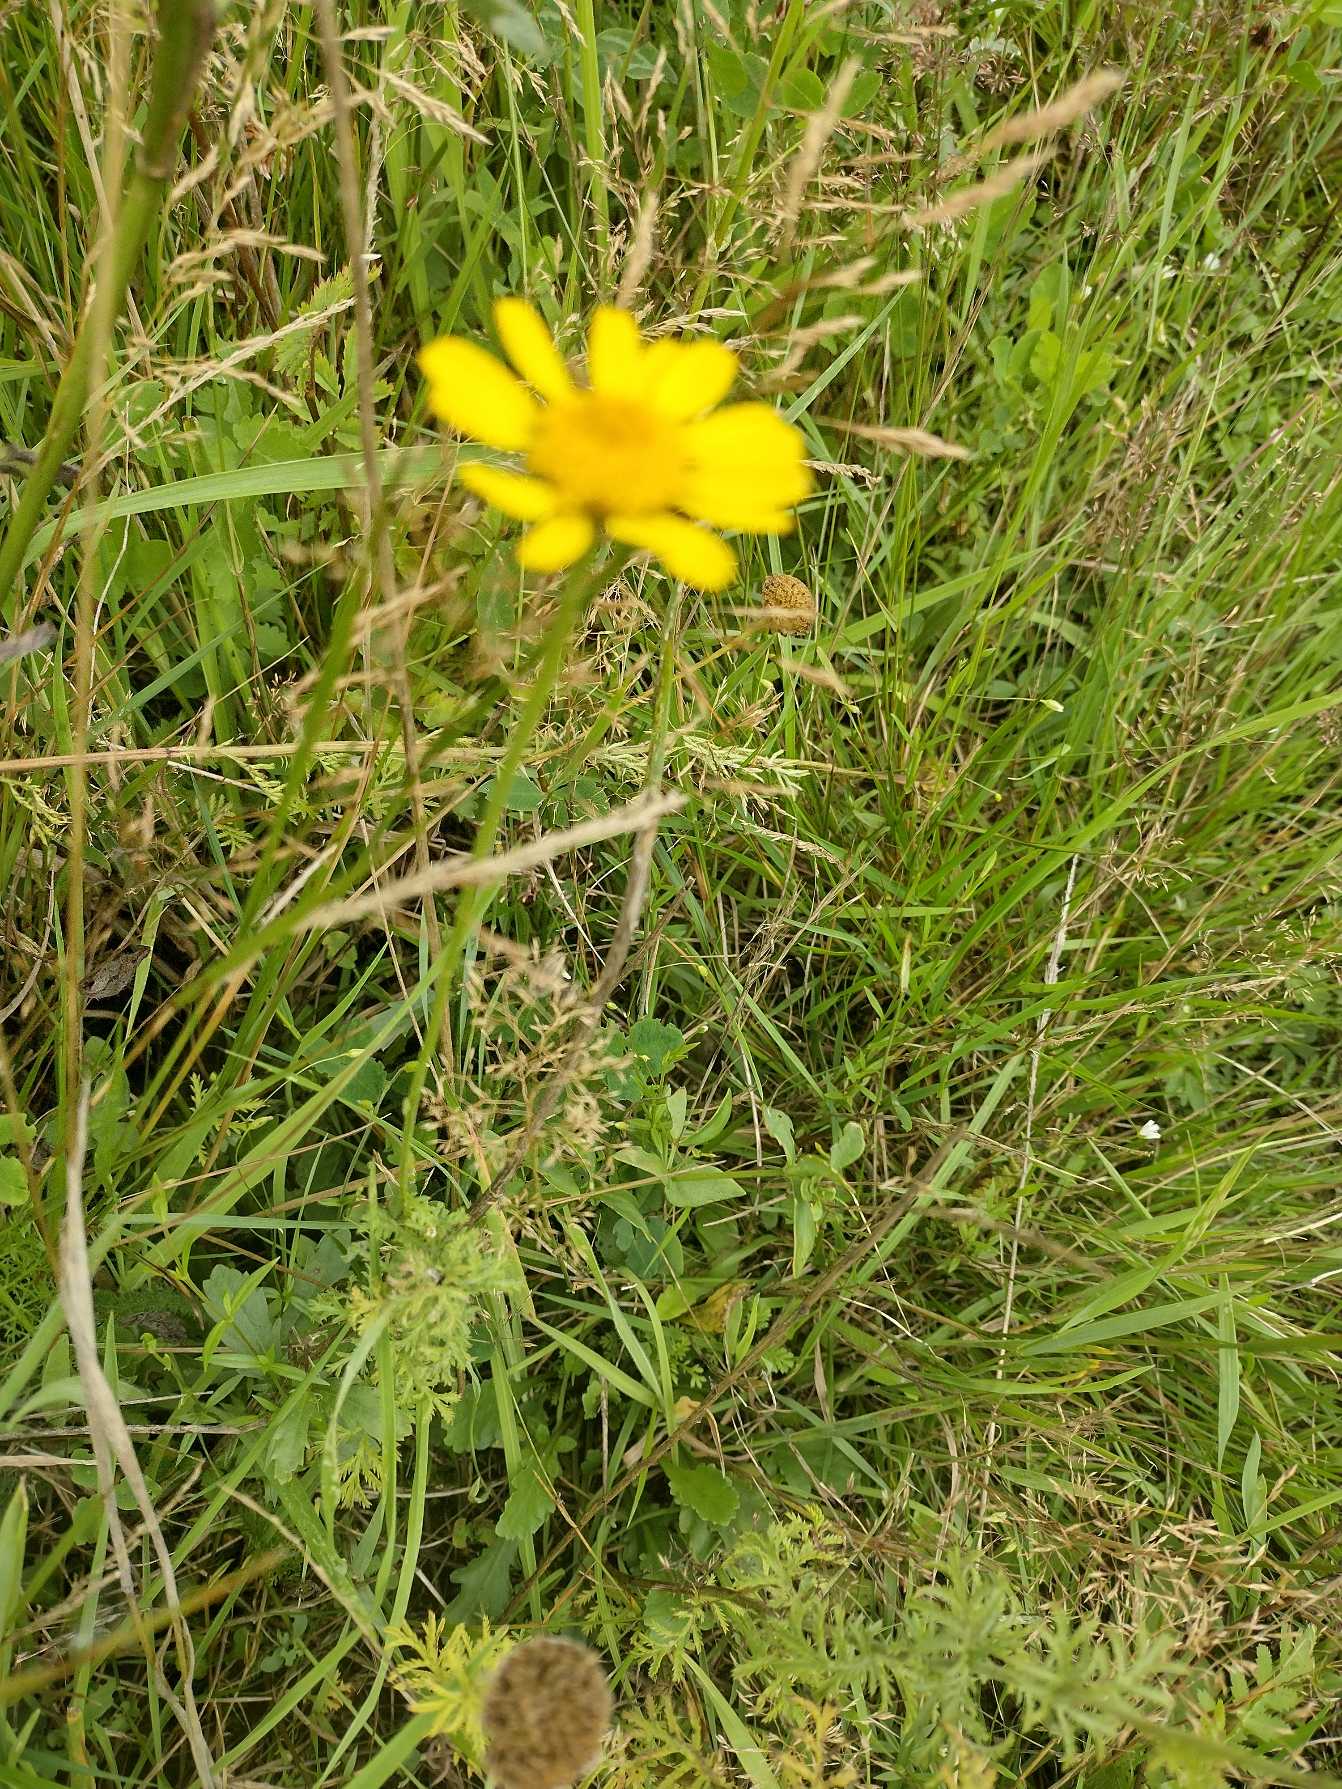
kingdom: Plantae
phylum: Tracheophyta
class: Magnoliopsida
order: Asterales
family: Asteraceae
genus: Cota
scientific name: Cota tinctoria
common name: Farve-gåseurt
